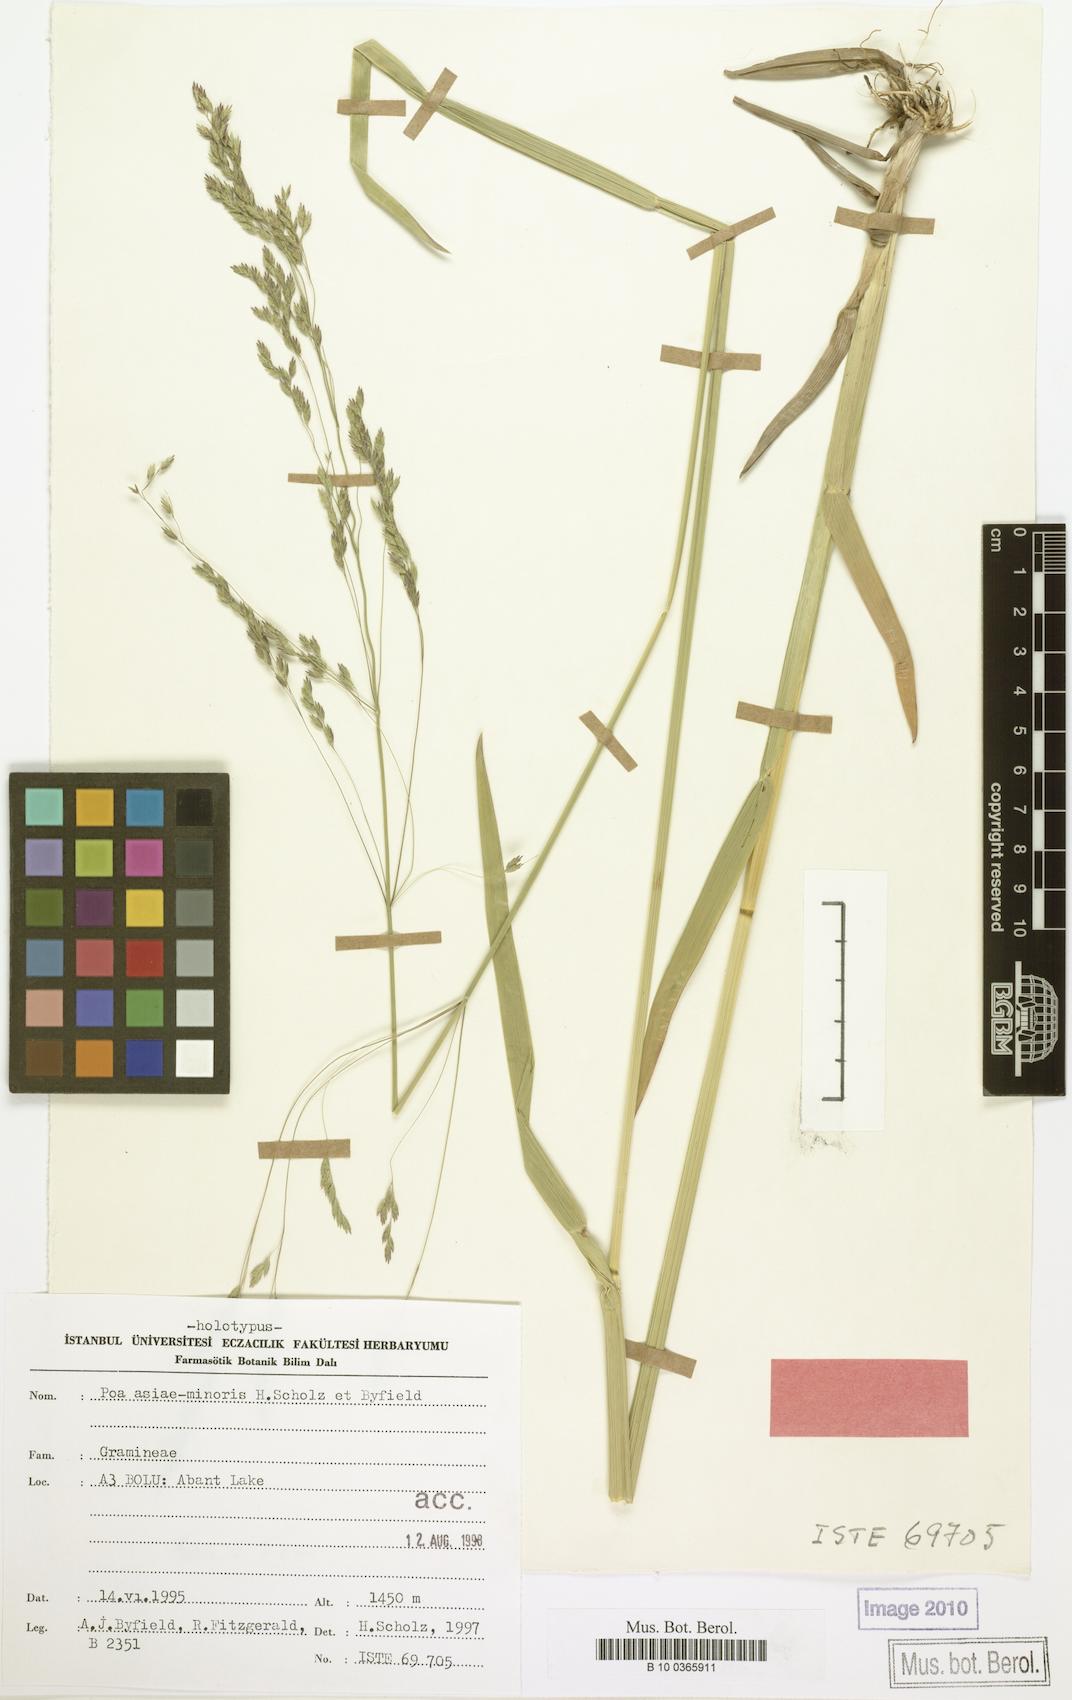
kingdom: Plantae
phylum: Tracheophyta
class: Liliopsida
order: Poales
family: Poaceae
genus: Poa
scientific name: Poa remota
